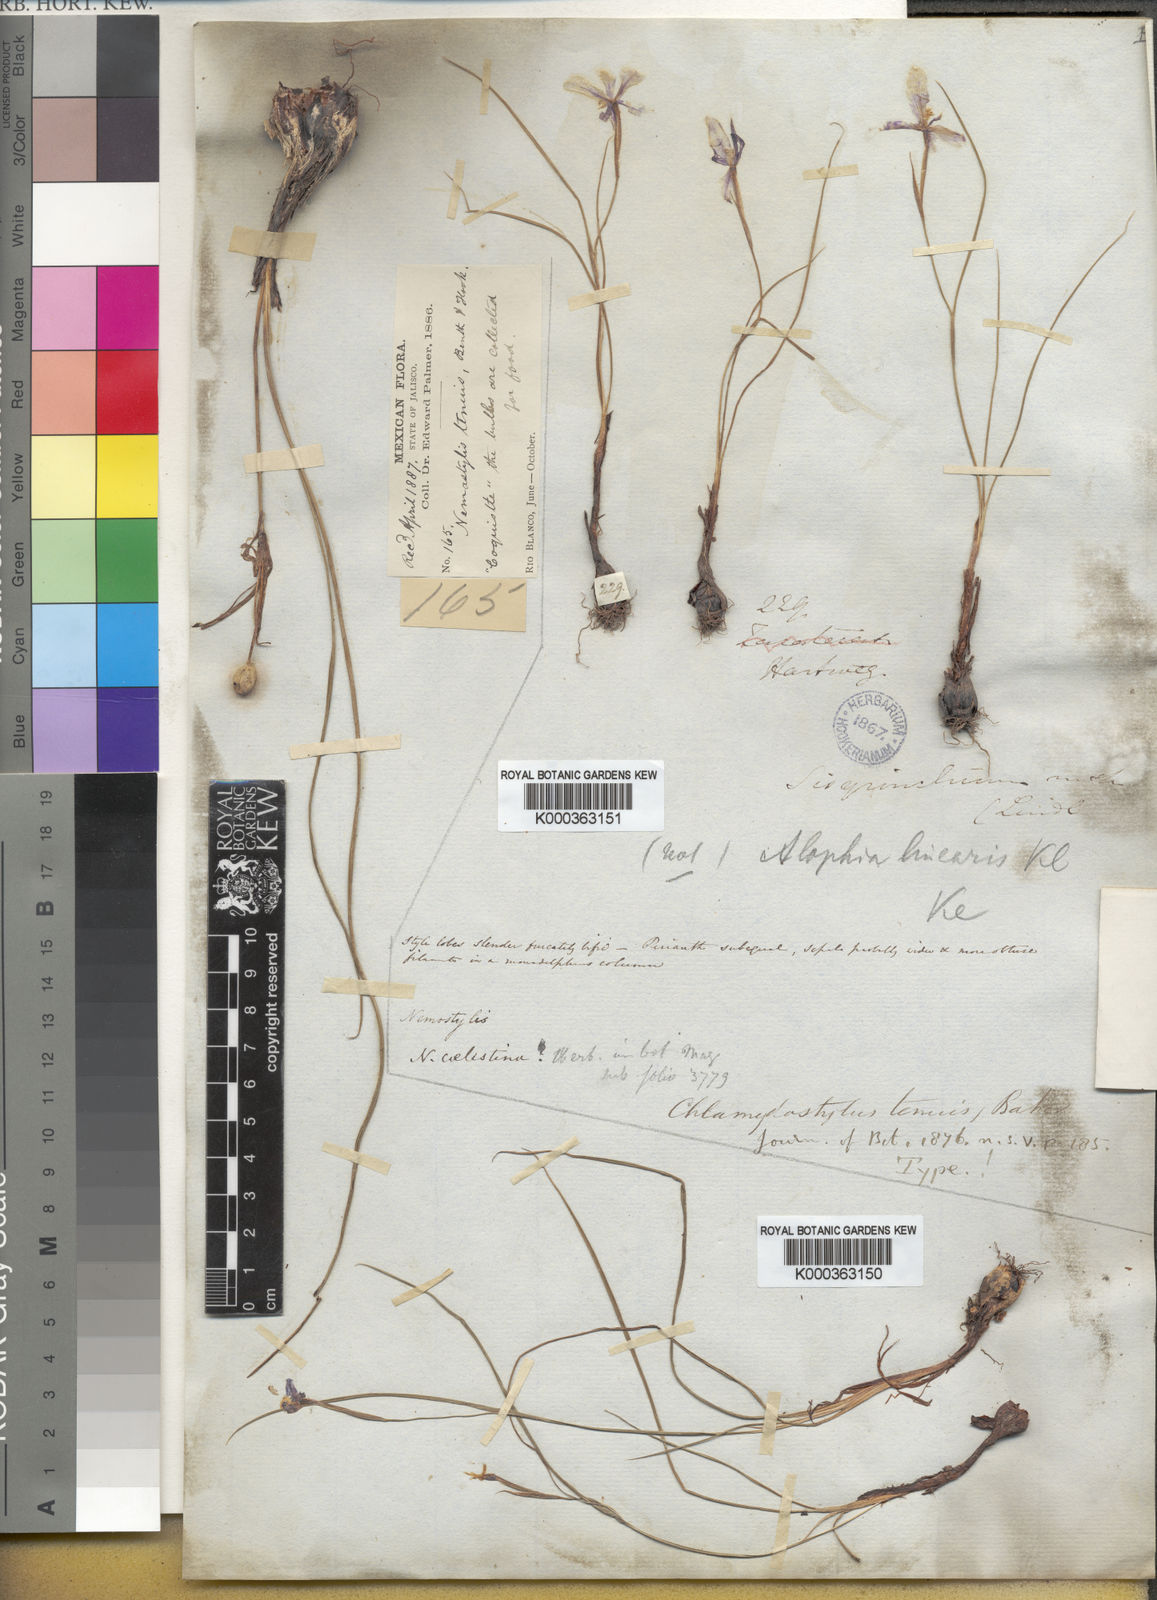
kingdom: Plantae
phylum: Tracheophyta
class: Liliopsida
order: Asparagales
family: Iridaceae
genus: Nemastylis
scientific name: Nemastylis
